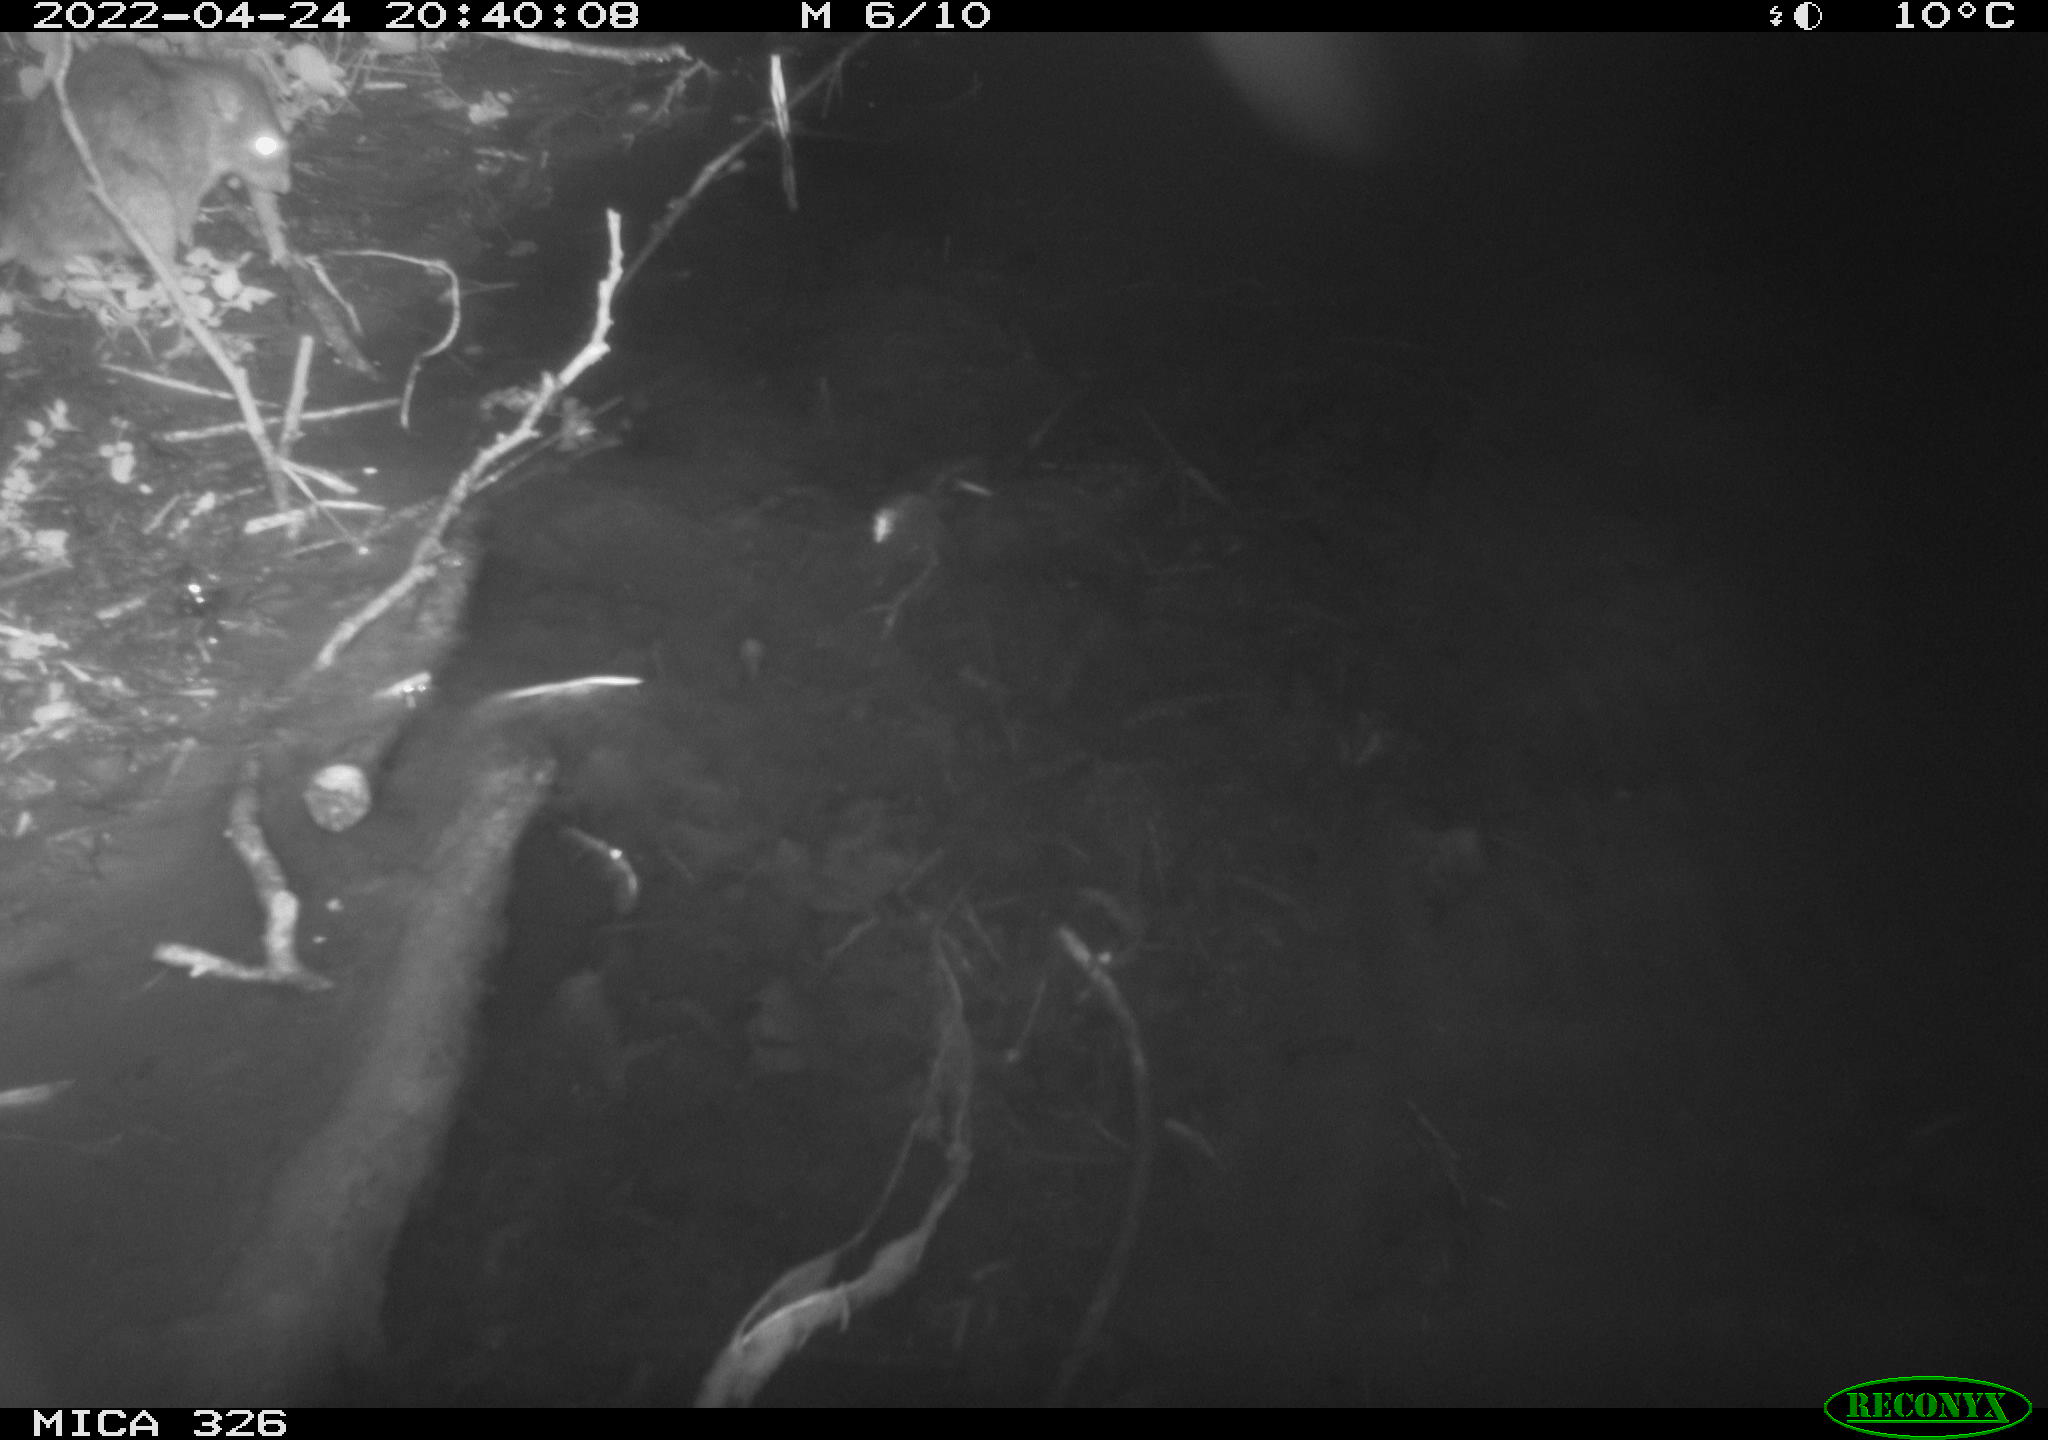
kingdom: Animalia
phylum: Chordata
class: Mammalia
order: Rodentia
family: Muridae
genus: Rattus
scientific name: Rattus norvegicus
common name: Brown rat
